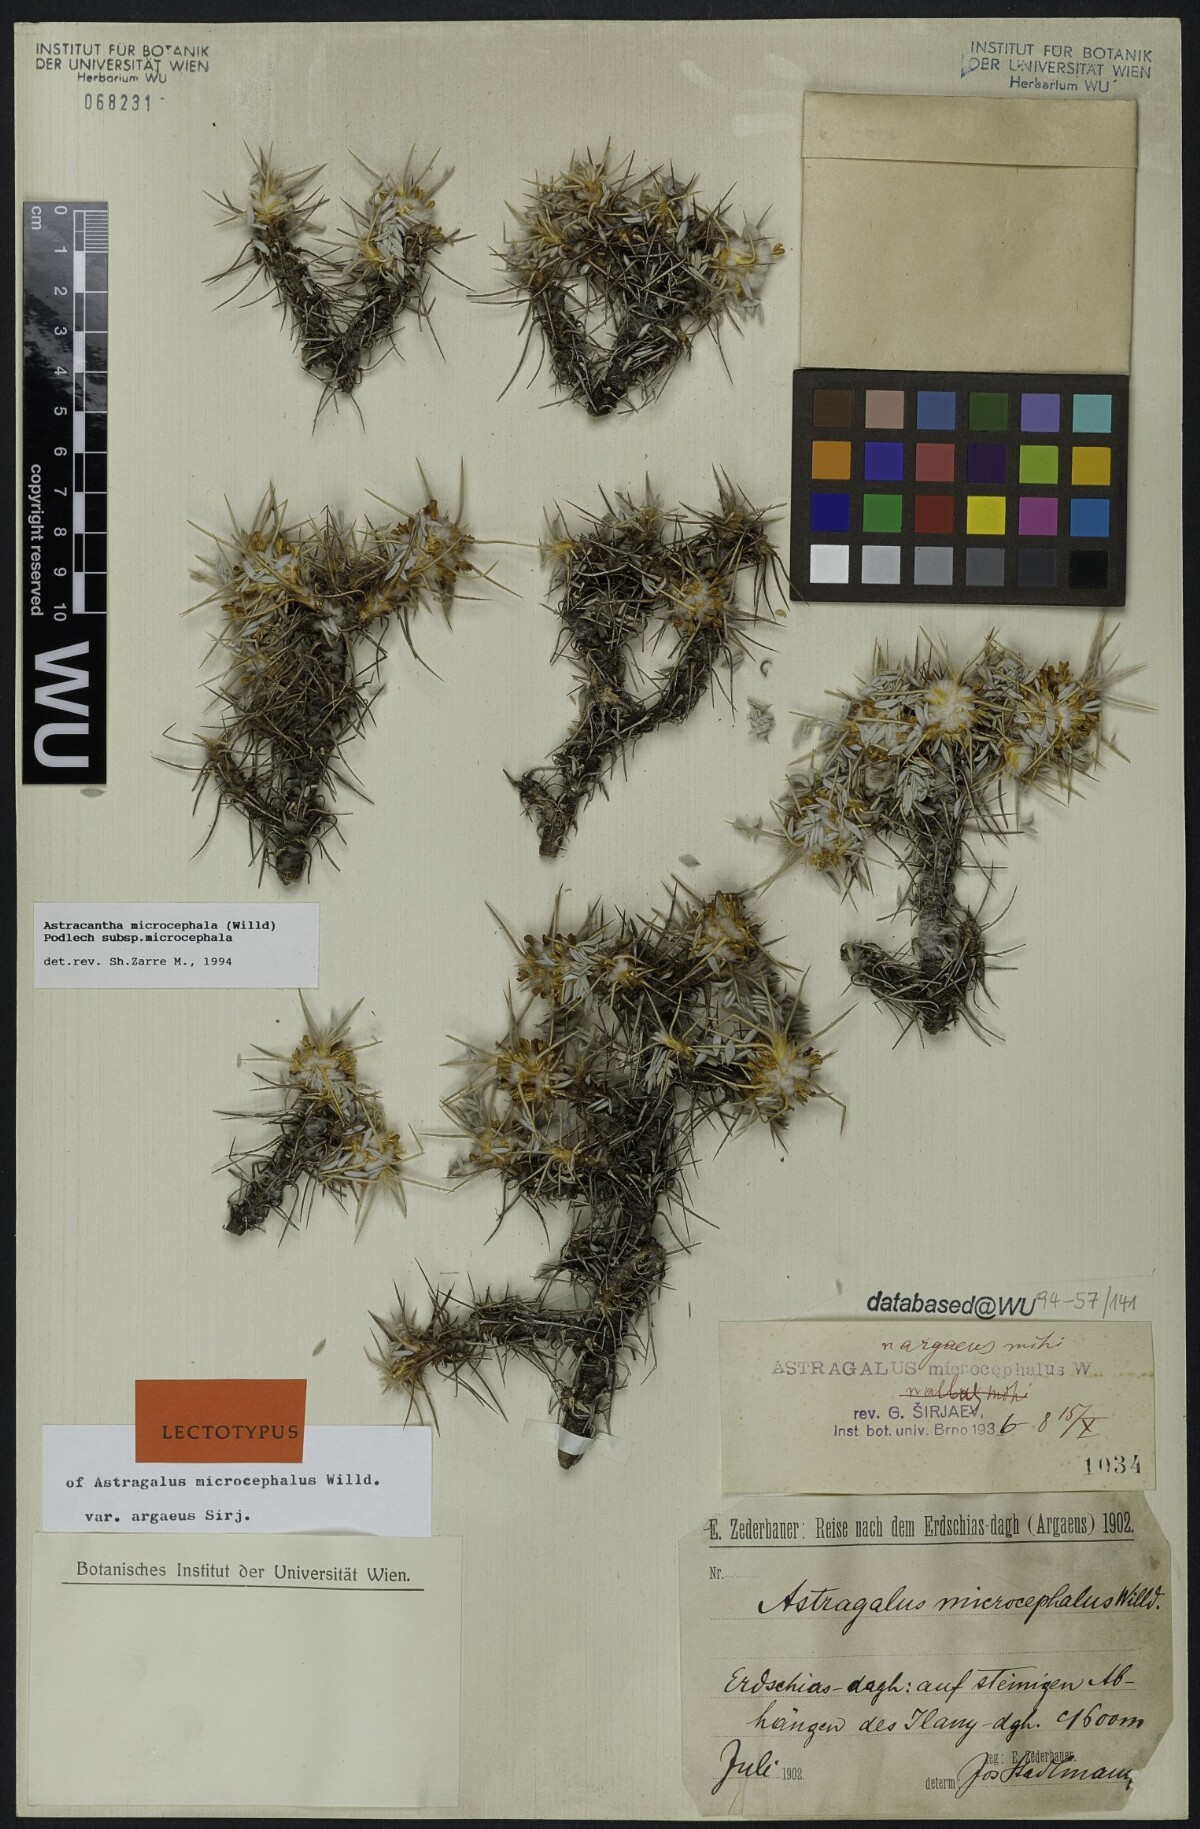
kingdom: Plantae
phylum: Tracheophyta
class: Magnoliopsida
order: Fabales
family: Fabaceae
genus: Astragalus
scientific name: Astragalus microcephalus
